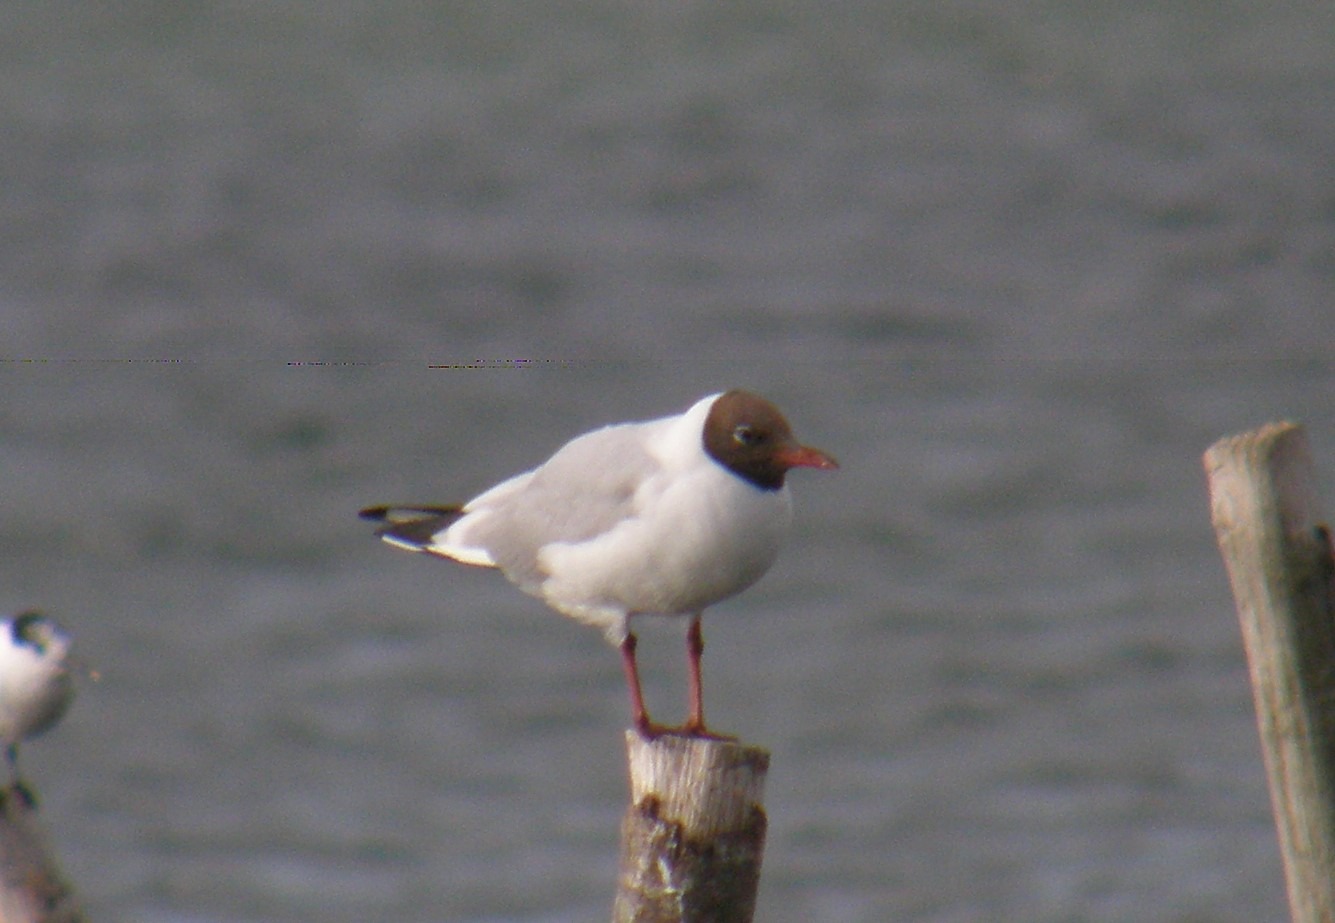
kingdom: Animalia
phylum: Chordata
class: Aves
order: Charadriiformes
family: Laridae
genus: Chroicocephalus
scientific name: Chroicocephalus ridibundus
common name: Hættemåge
